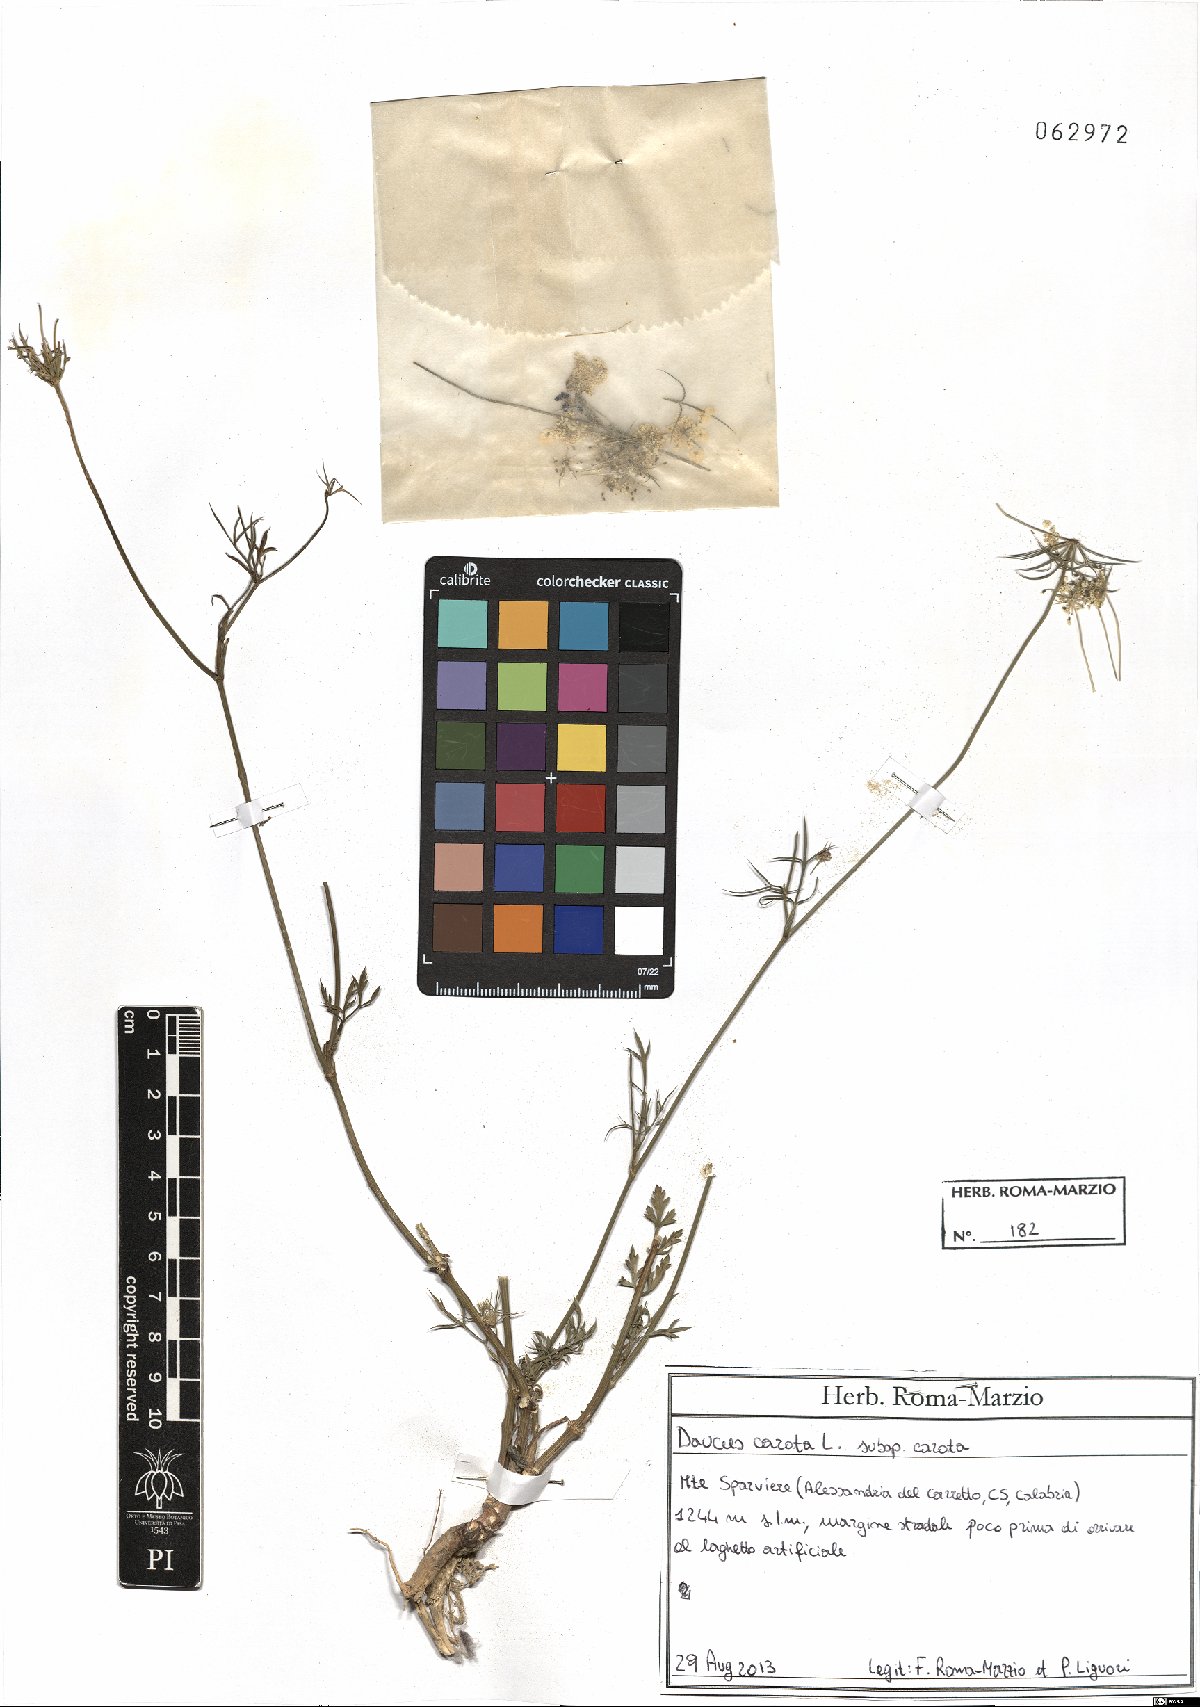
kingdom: Plantae
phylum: Tracheophyta
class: Magnoliopsida
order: Apiales
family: Apiaceae
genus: Daucus
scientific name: Daucus carota
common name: Wild carrot
